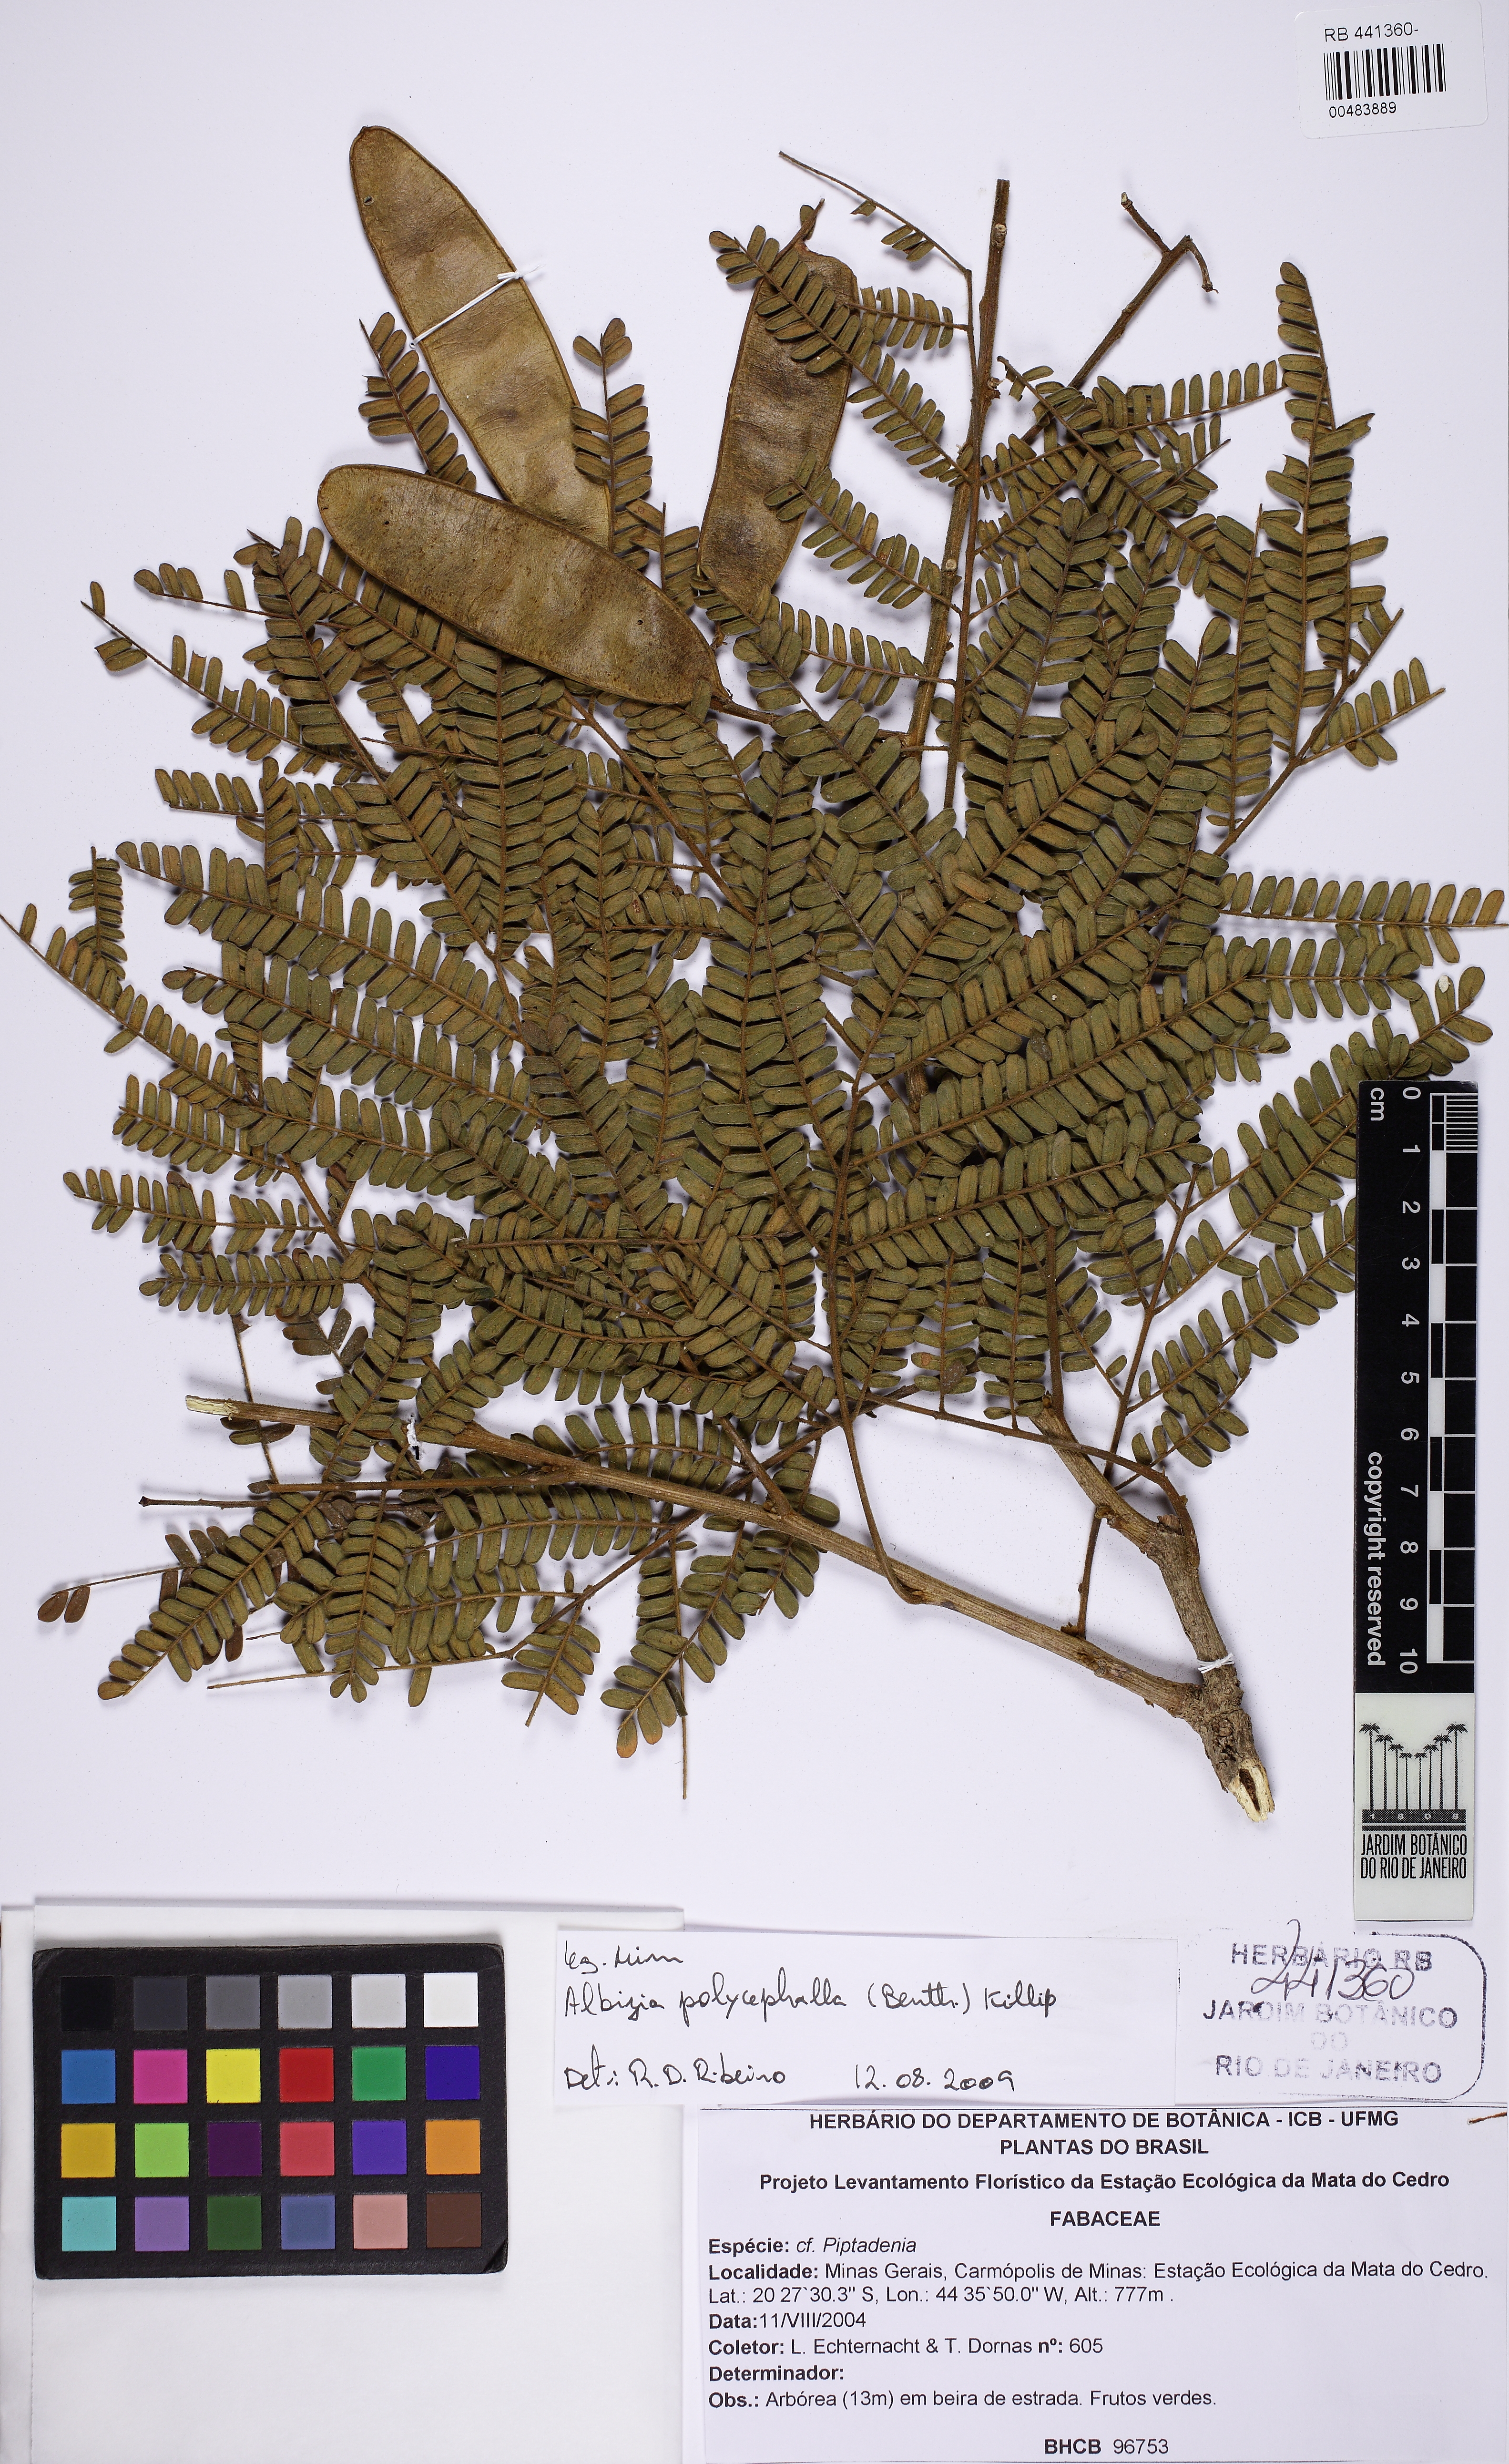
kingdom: Plantae
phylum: Tracheophyta
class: Magnoliopsida
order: Fabales
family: Fabaceae
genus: Pseudopiptadenia
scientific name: Pseudopiptadenia
